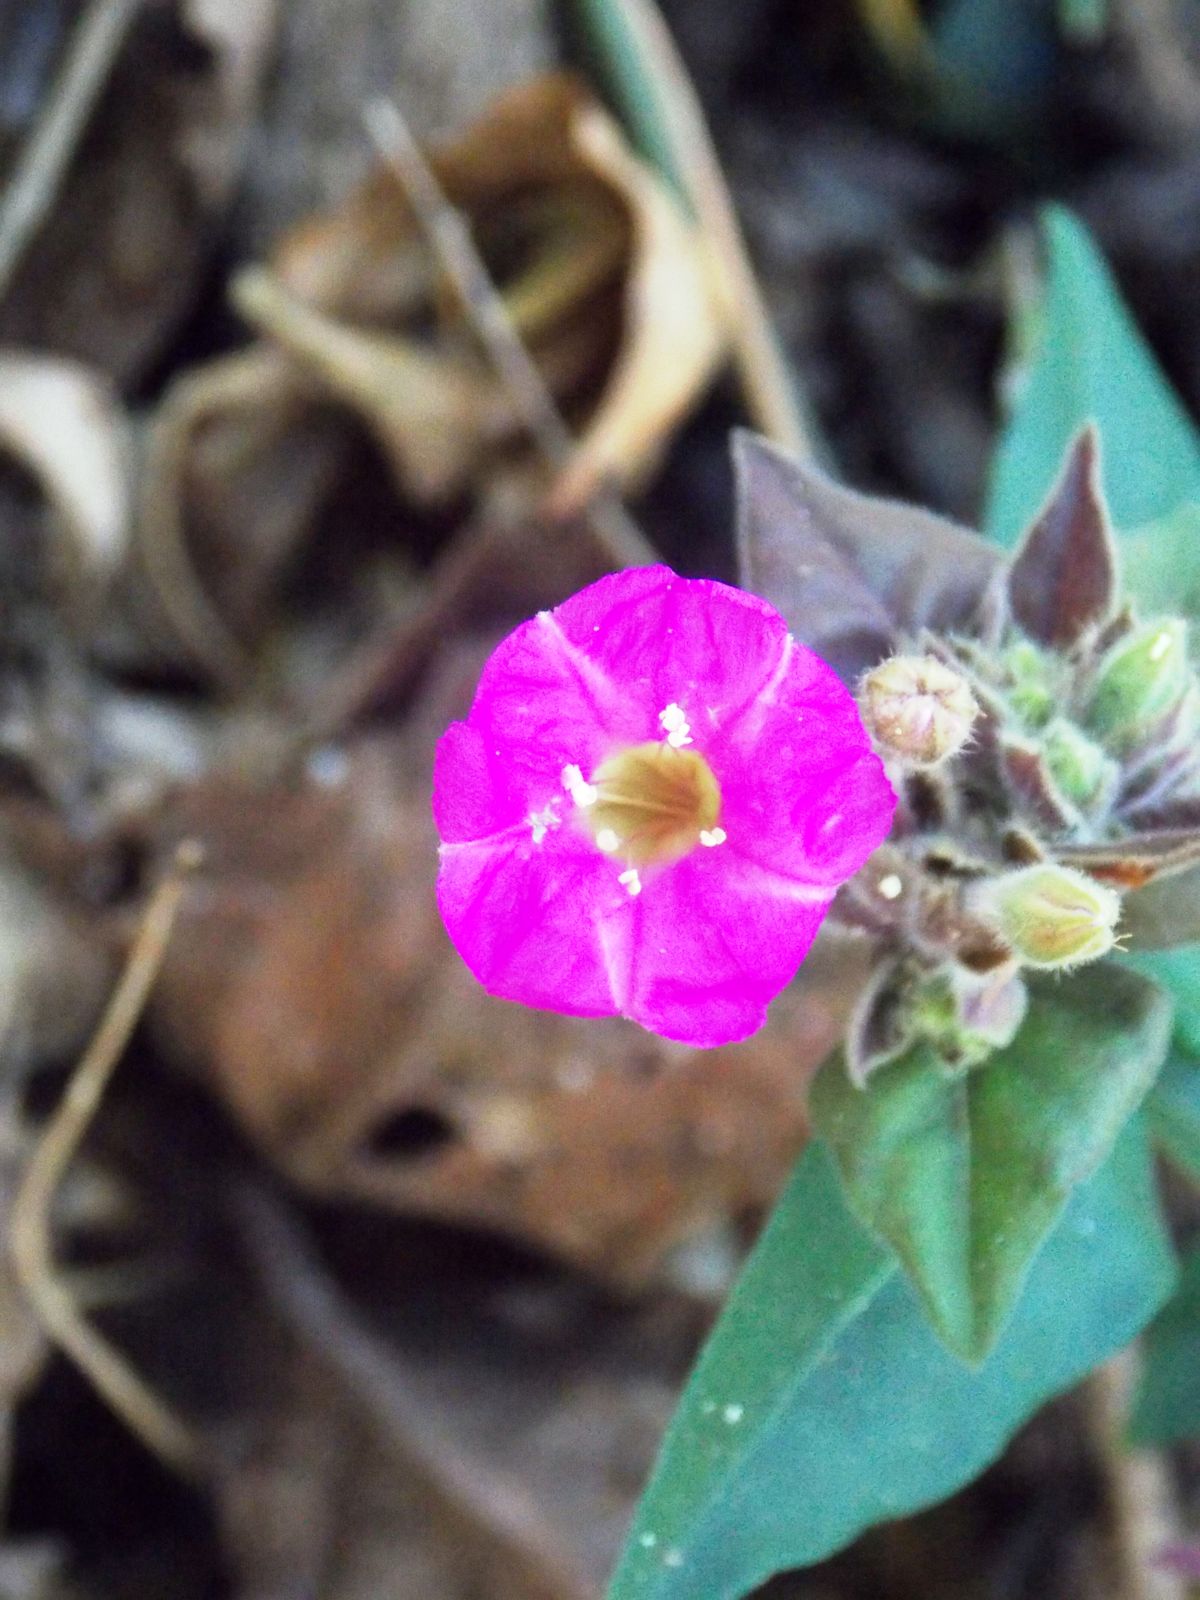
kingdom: Plantae
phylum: Tracheophyta
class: Magnoliopsida
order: Caryophyllales
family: Nyctaginaceae
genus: Cuscatlania
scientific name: Cuscatlania vulcanicola
